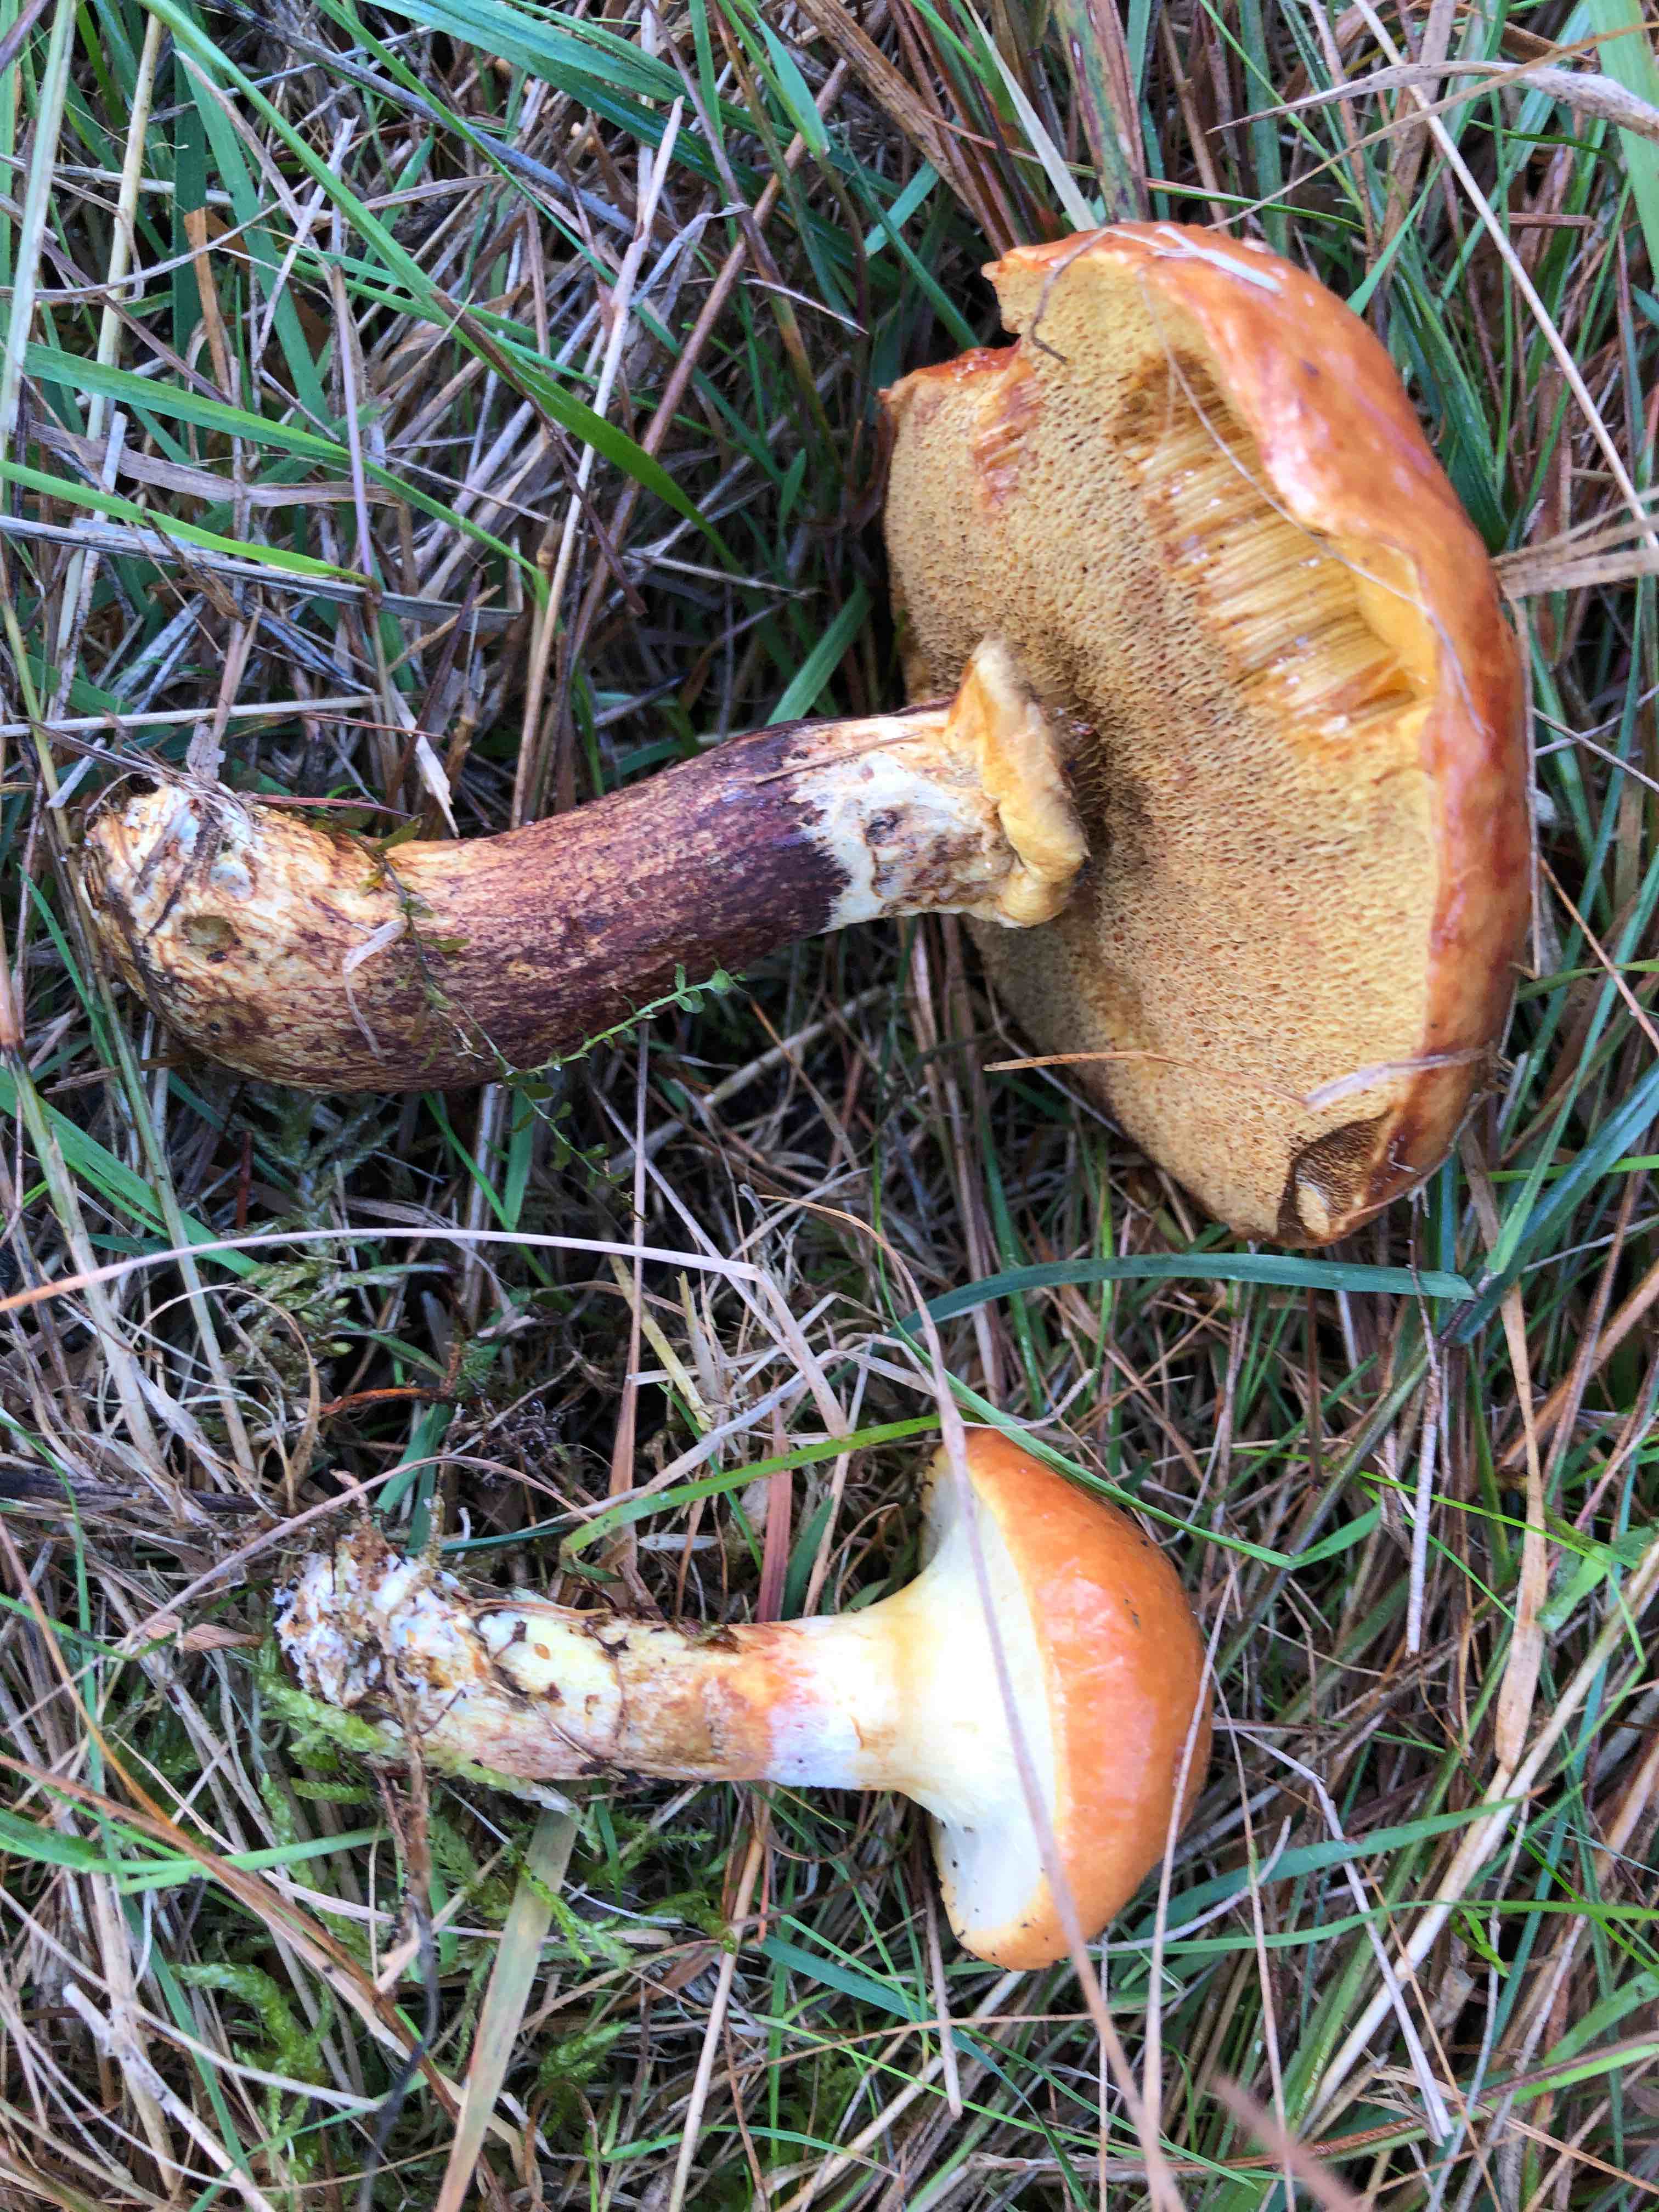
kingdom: Fungi
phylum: Basidiomycota
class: Agaricomycetes
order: Boletales
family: Suillaceae
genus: Suillus
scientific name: Suillus grevillei
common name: lærke-slimrørhat
